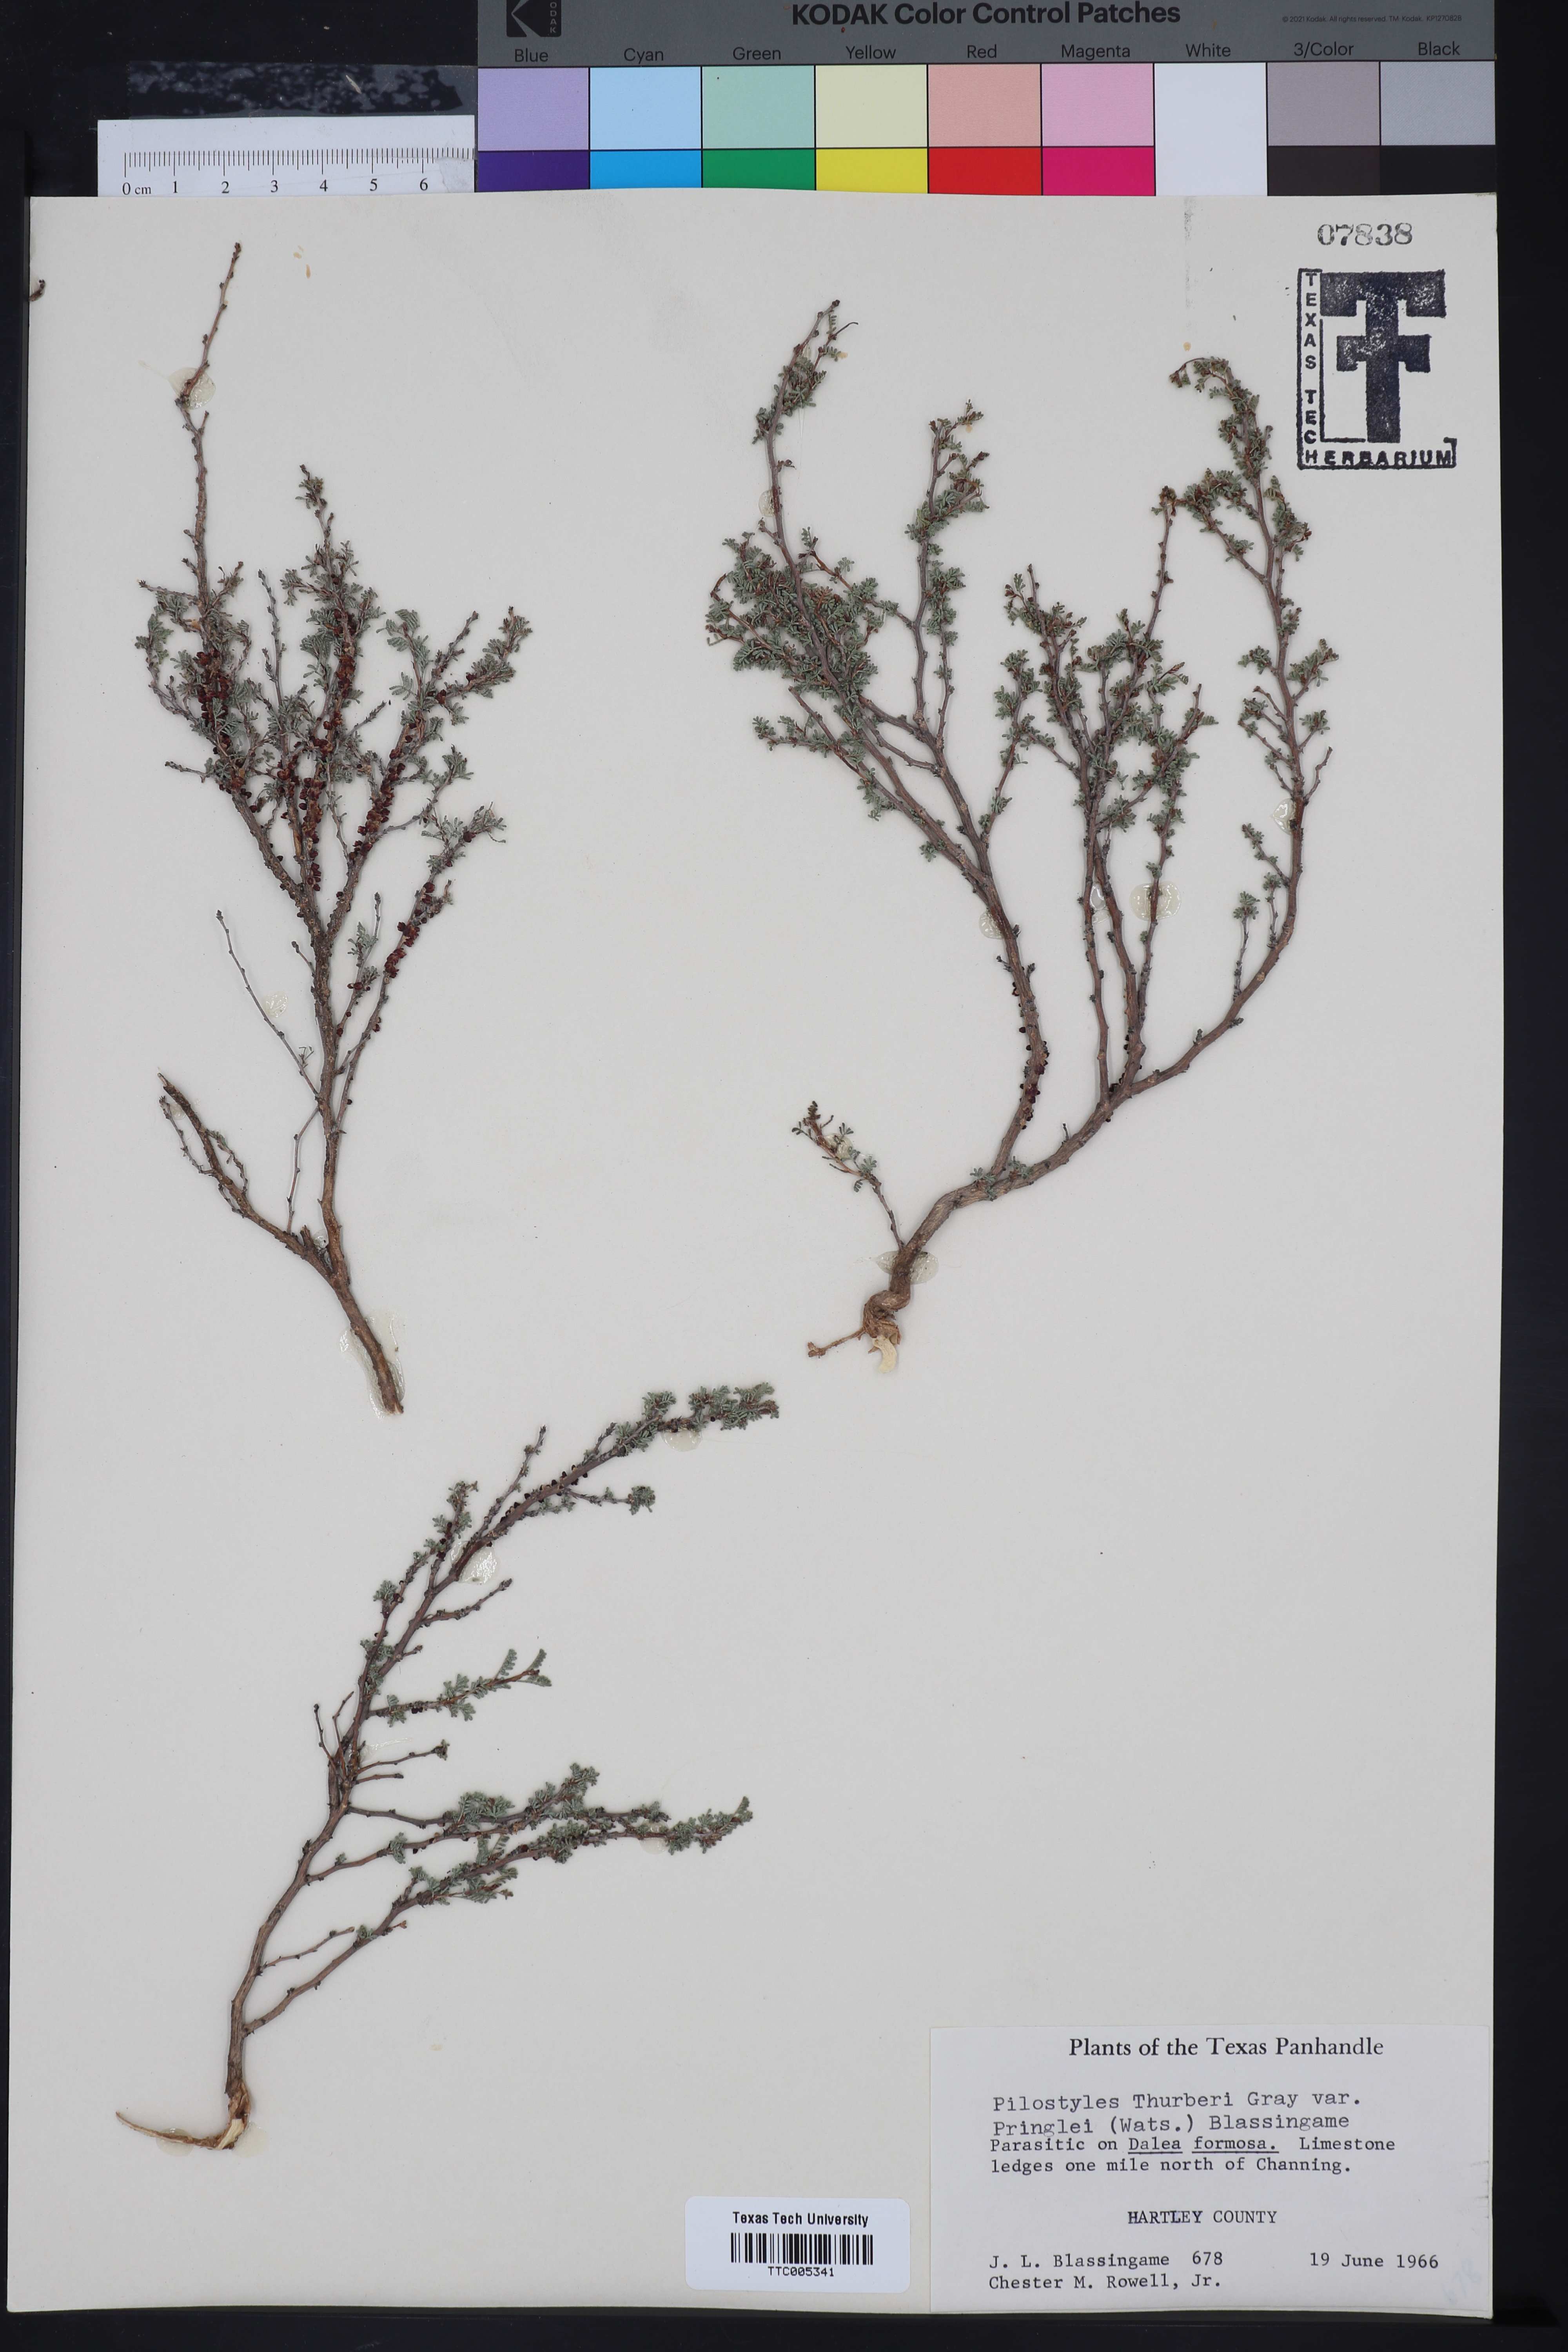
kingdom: Plantae
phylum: Tracheophyta
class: Magnoliopsida
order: Cucurbitales
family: Apodanthaceae
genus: Pilostyles
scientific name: Pilostyles thurberi
